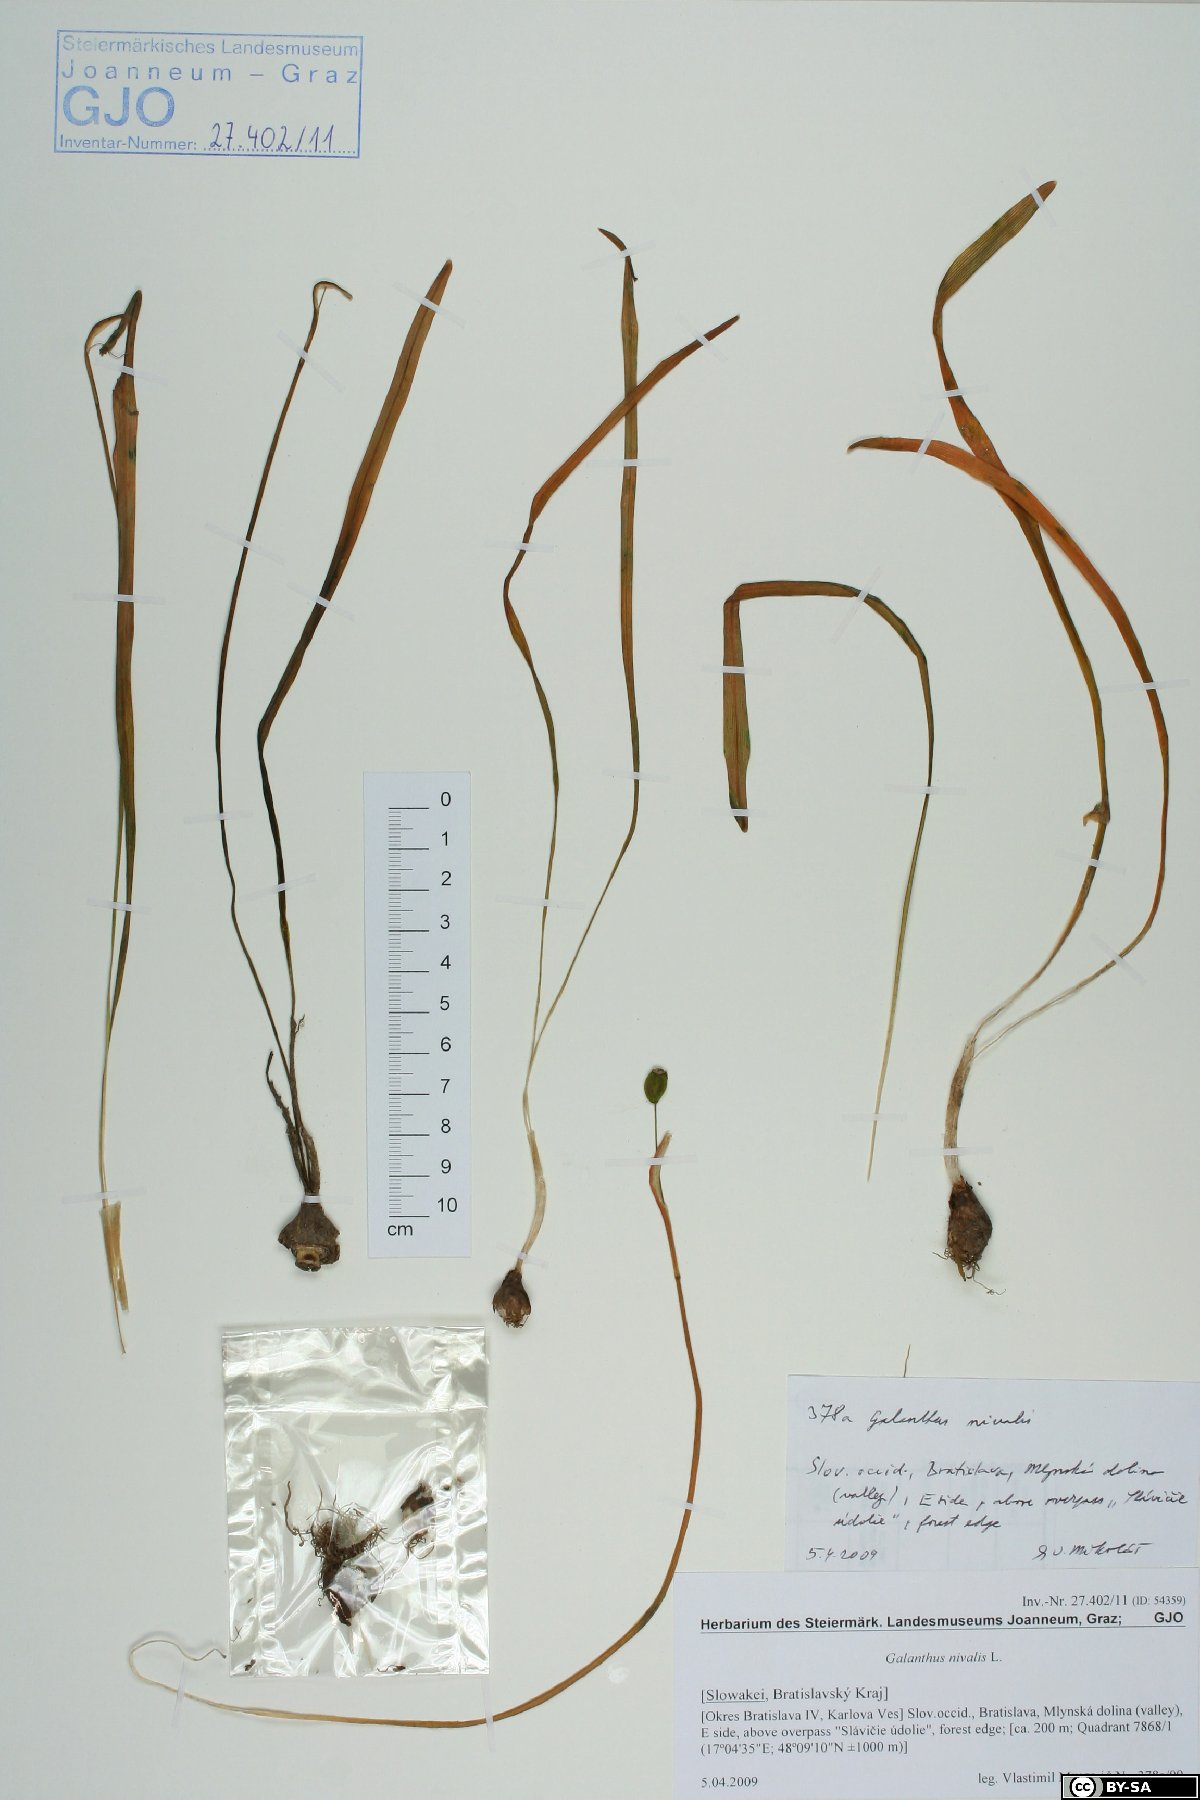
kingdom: Plantae
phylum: Tracheophyta
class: Liliopsida
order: Asparagales
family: Amaryllidaceae
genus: Galanthus
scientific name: Galanthus nivalis
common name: Snowdrop
